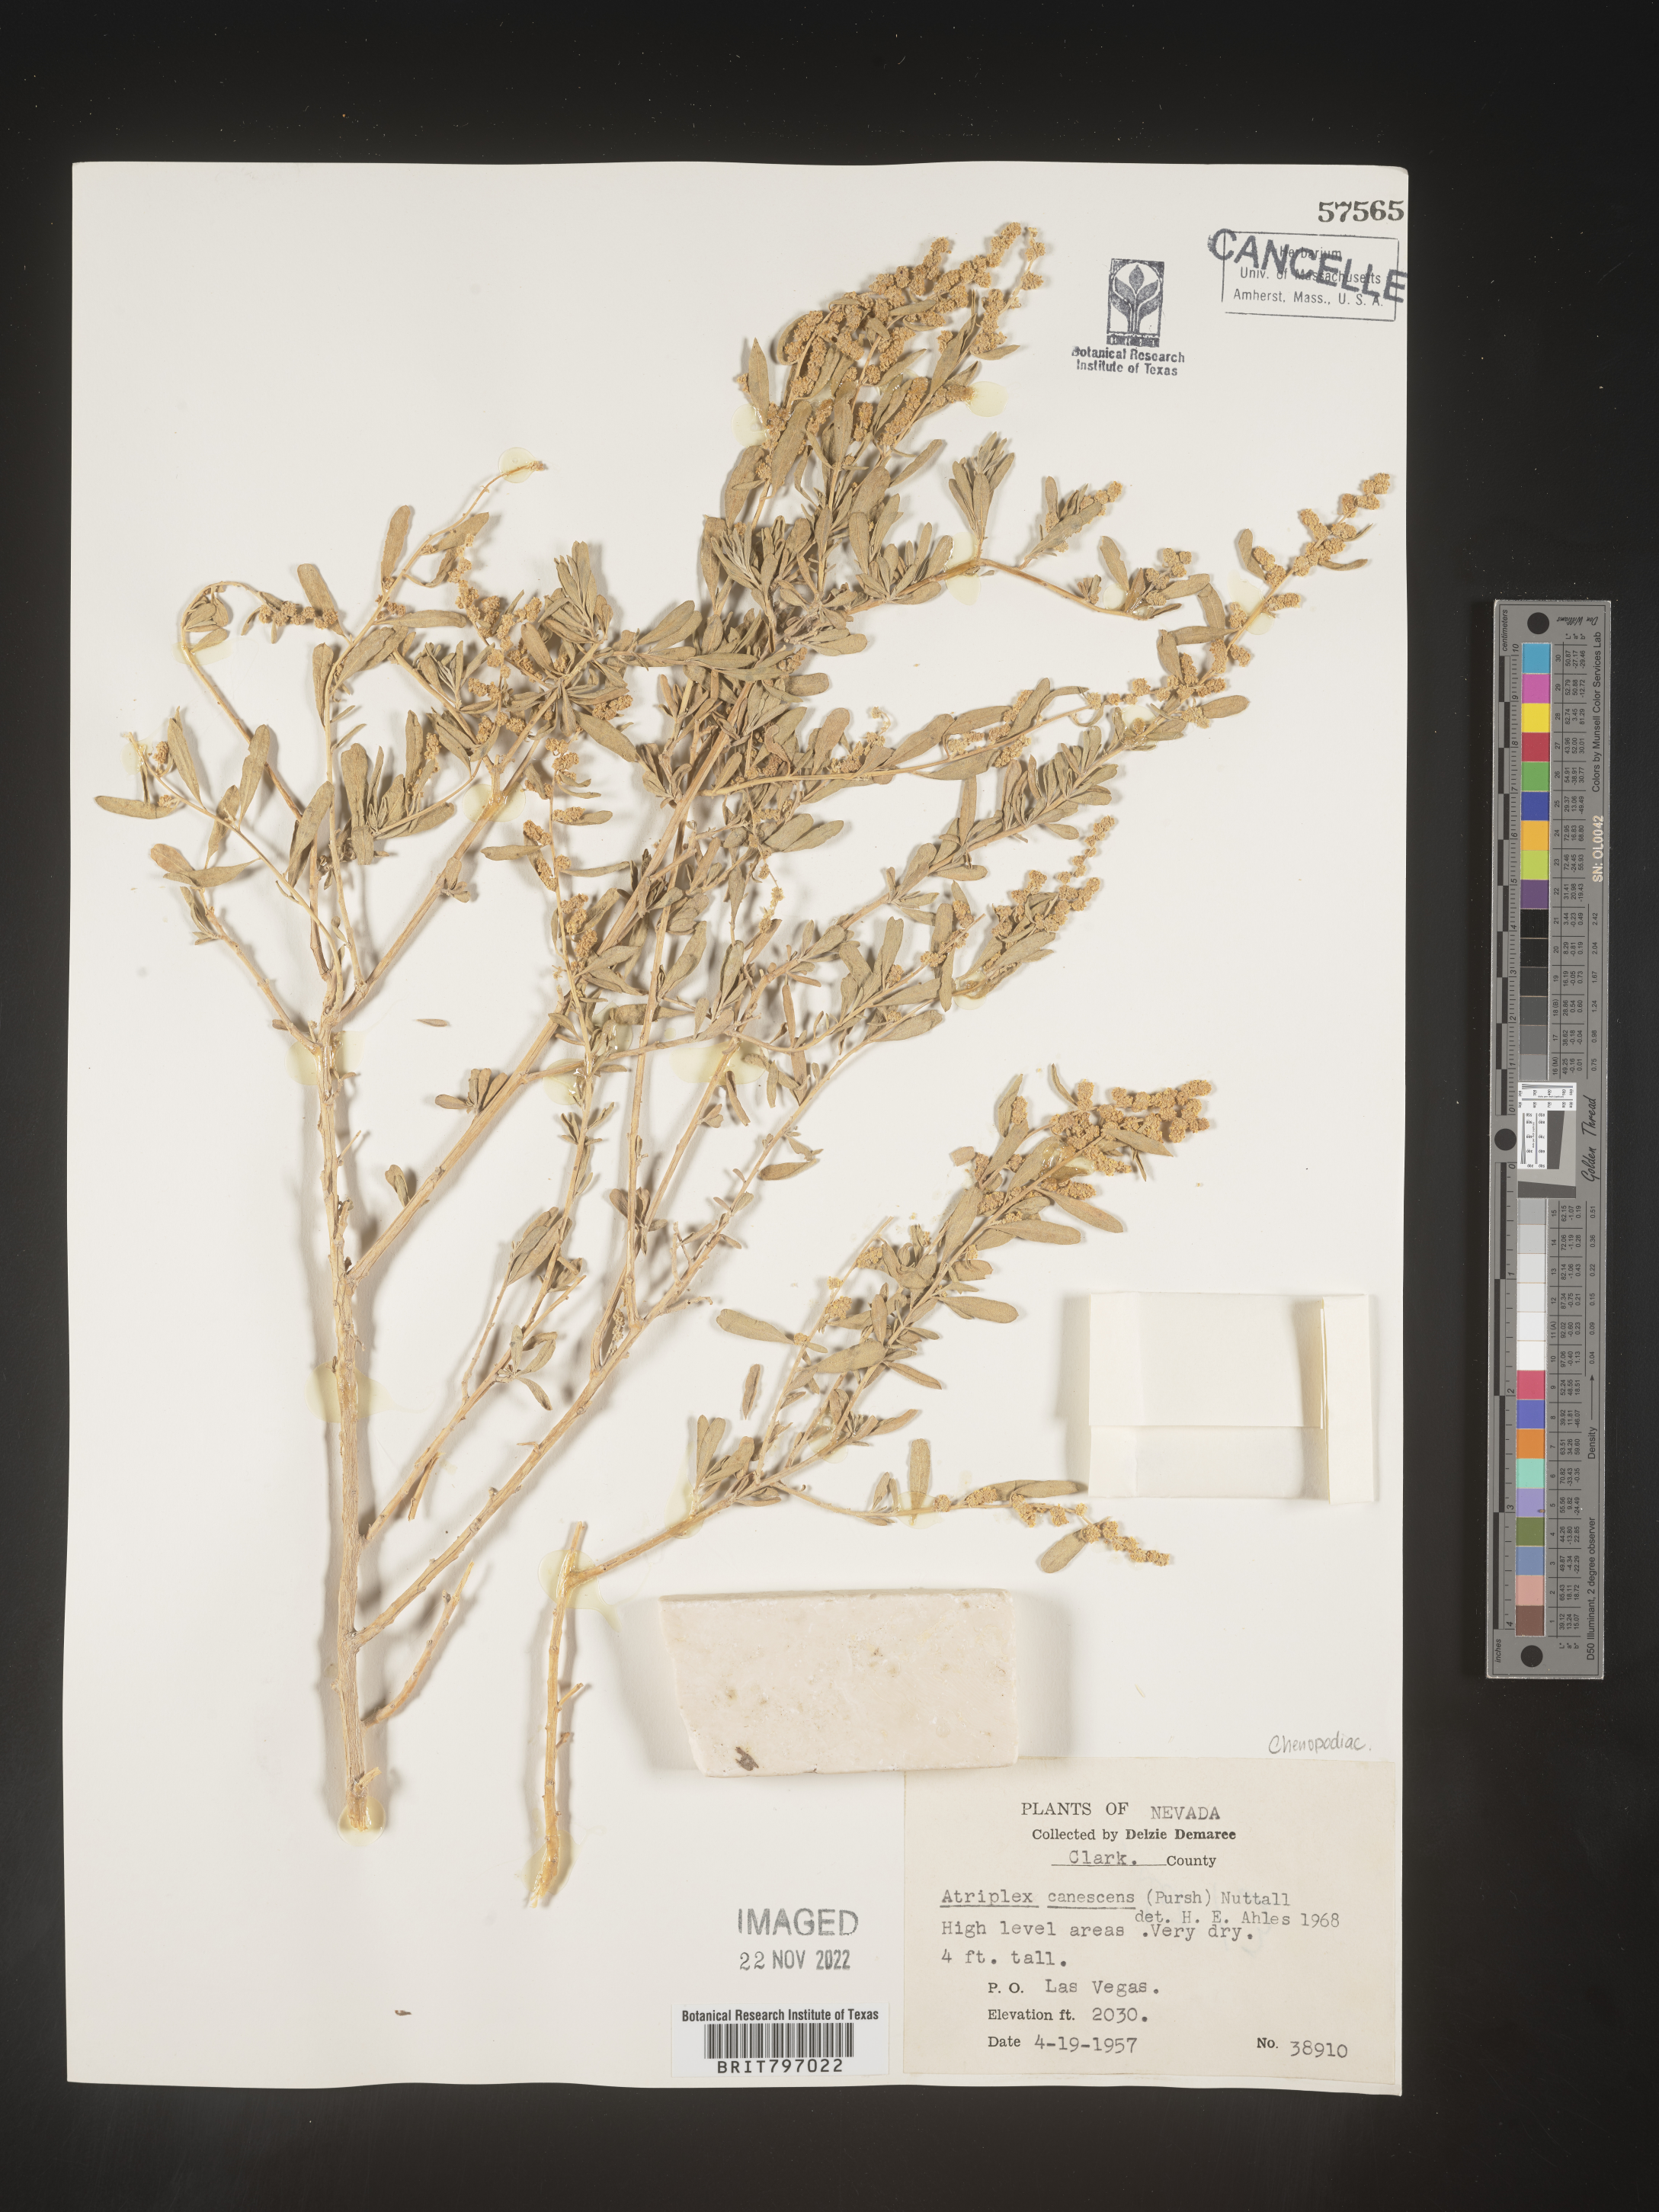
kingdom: Plantae
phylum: Tracheophyta
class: Magnoliopsida
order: Caryophyllales
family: Amaranthaceae
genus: Atriplex
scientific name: Atriplex canescens
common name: Four-wing saltbush
